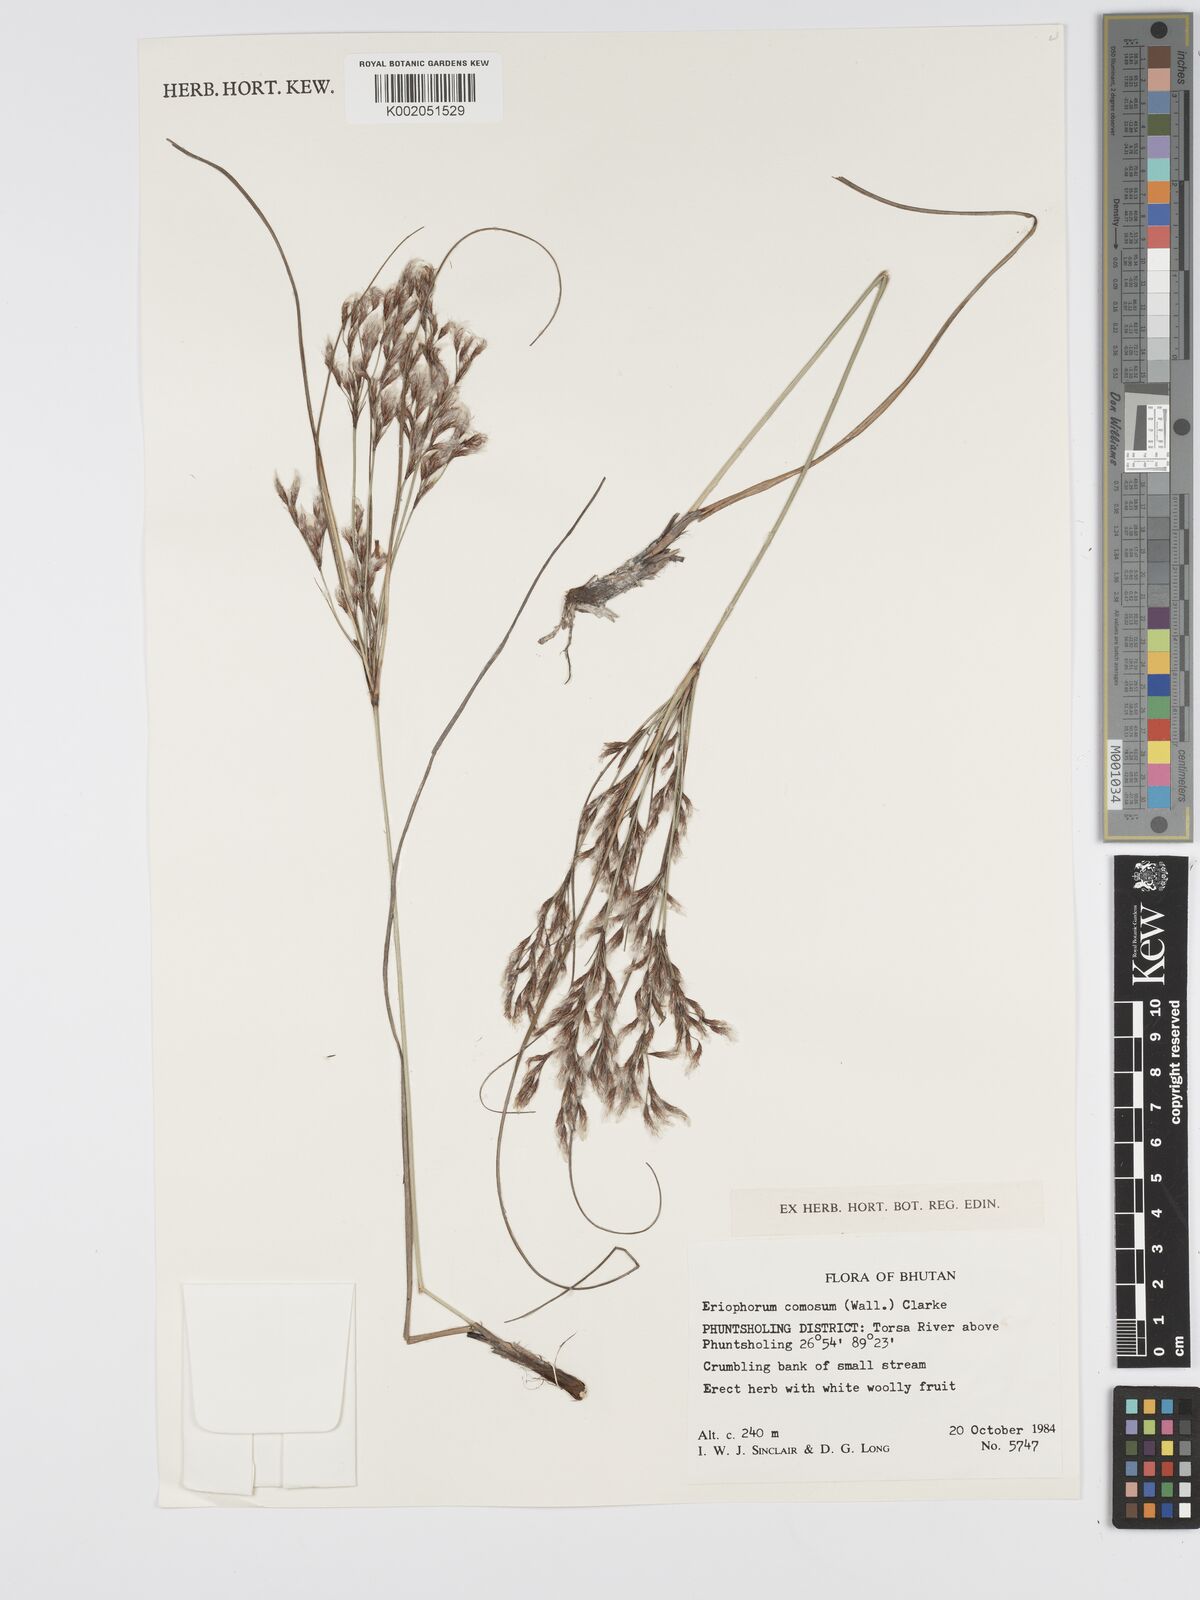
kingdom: Plantae
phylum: Tracheophyta
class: Liliopsida
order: Poales
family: Cyperaceae
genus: Erioscirpus
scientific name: Erioscirpus comosus
